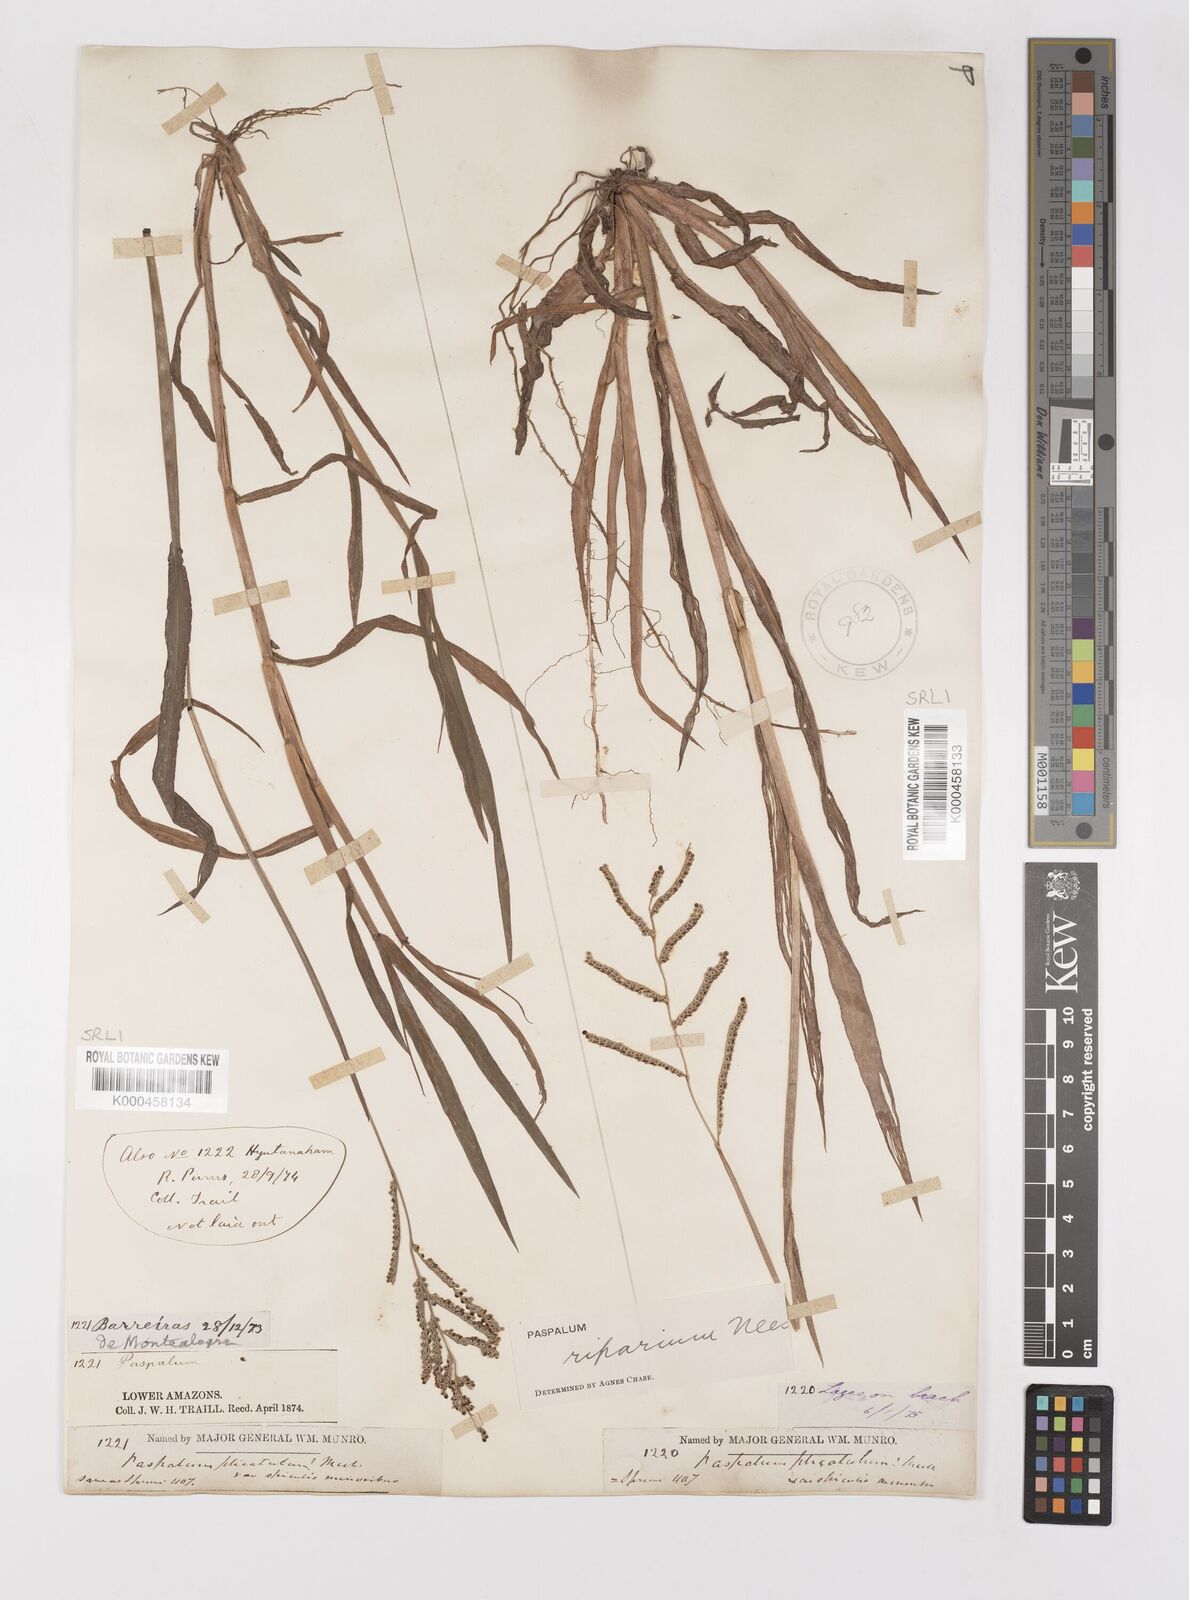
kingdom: Plantae
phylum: Tracheophyta
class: Liliopsida
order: Poales
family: Poaceae
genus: Paspalum
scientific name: Paspalum
